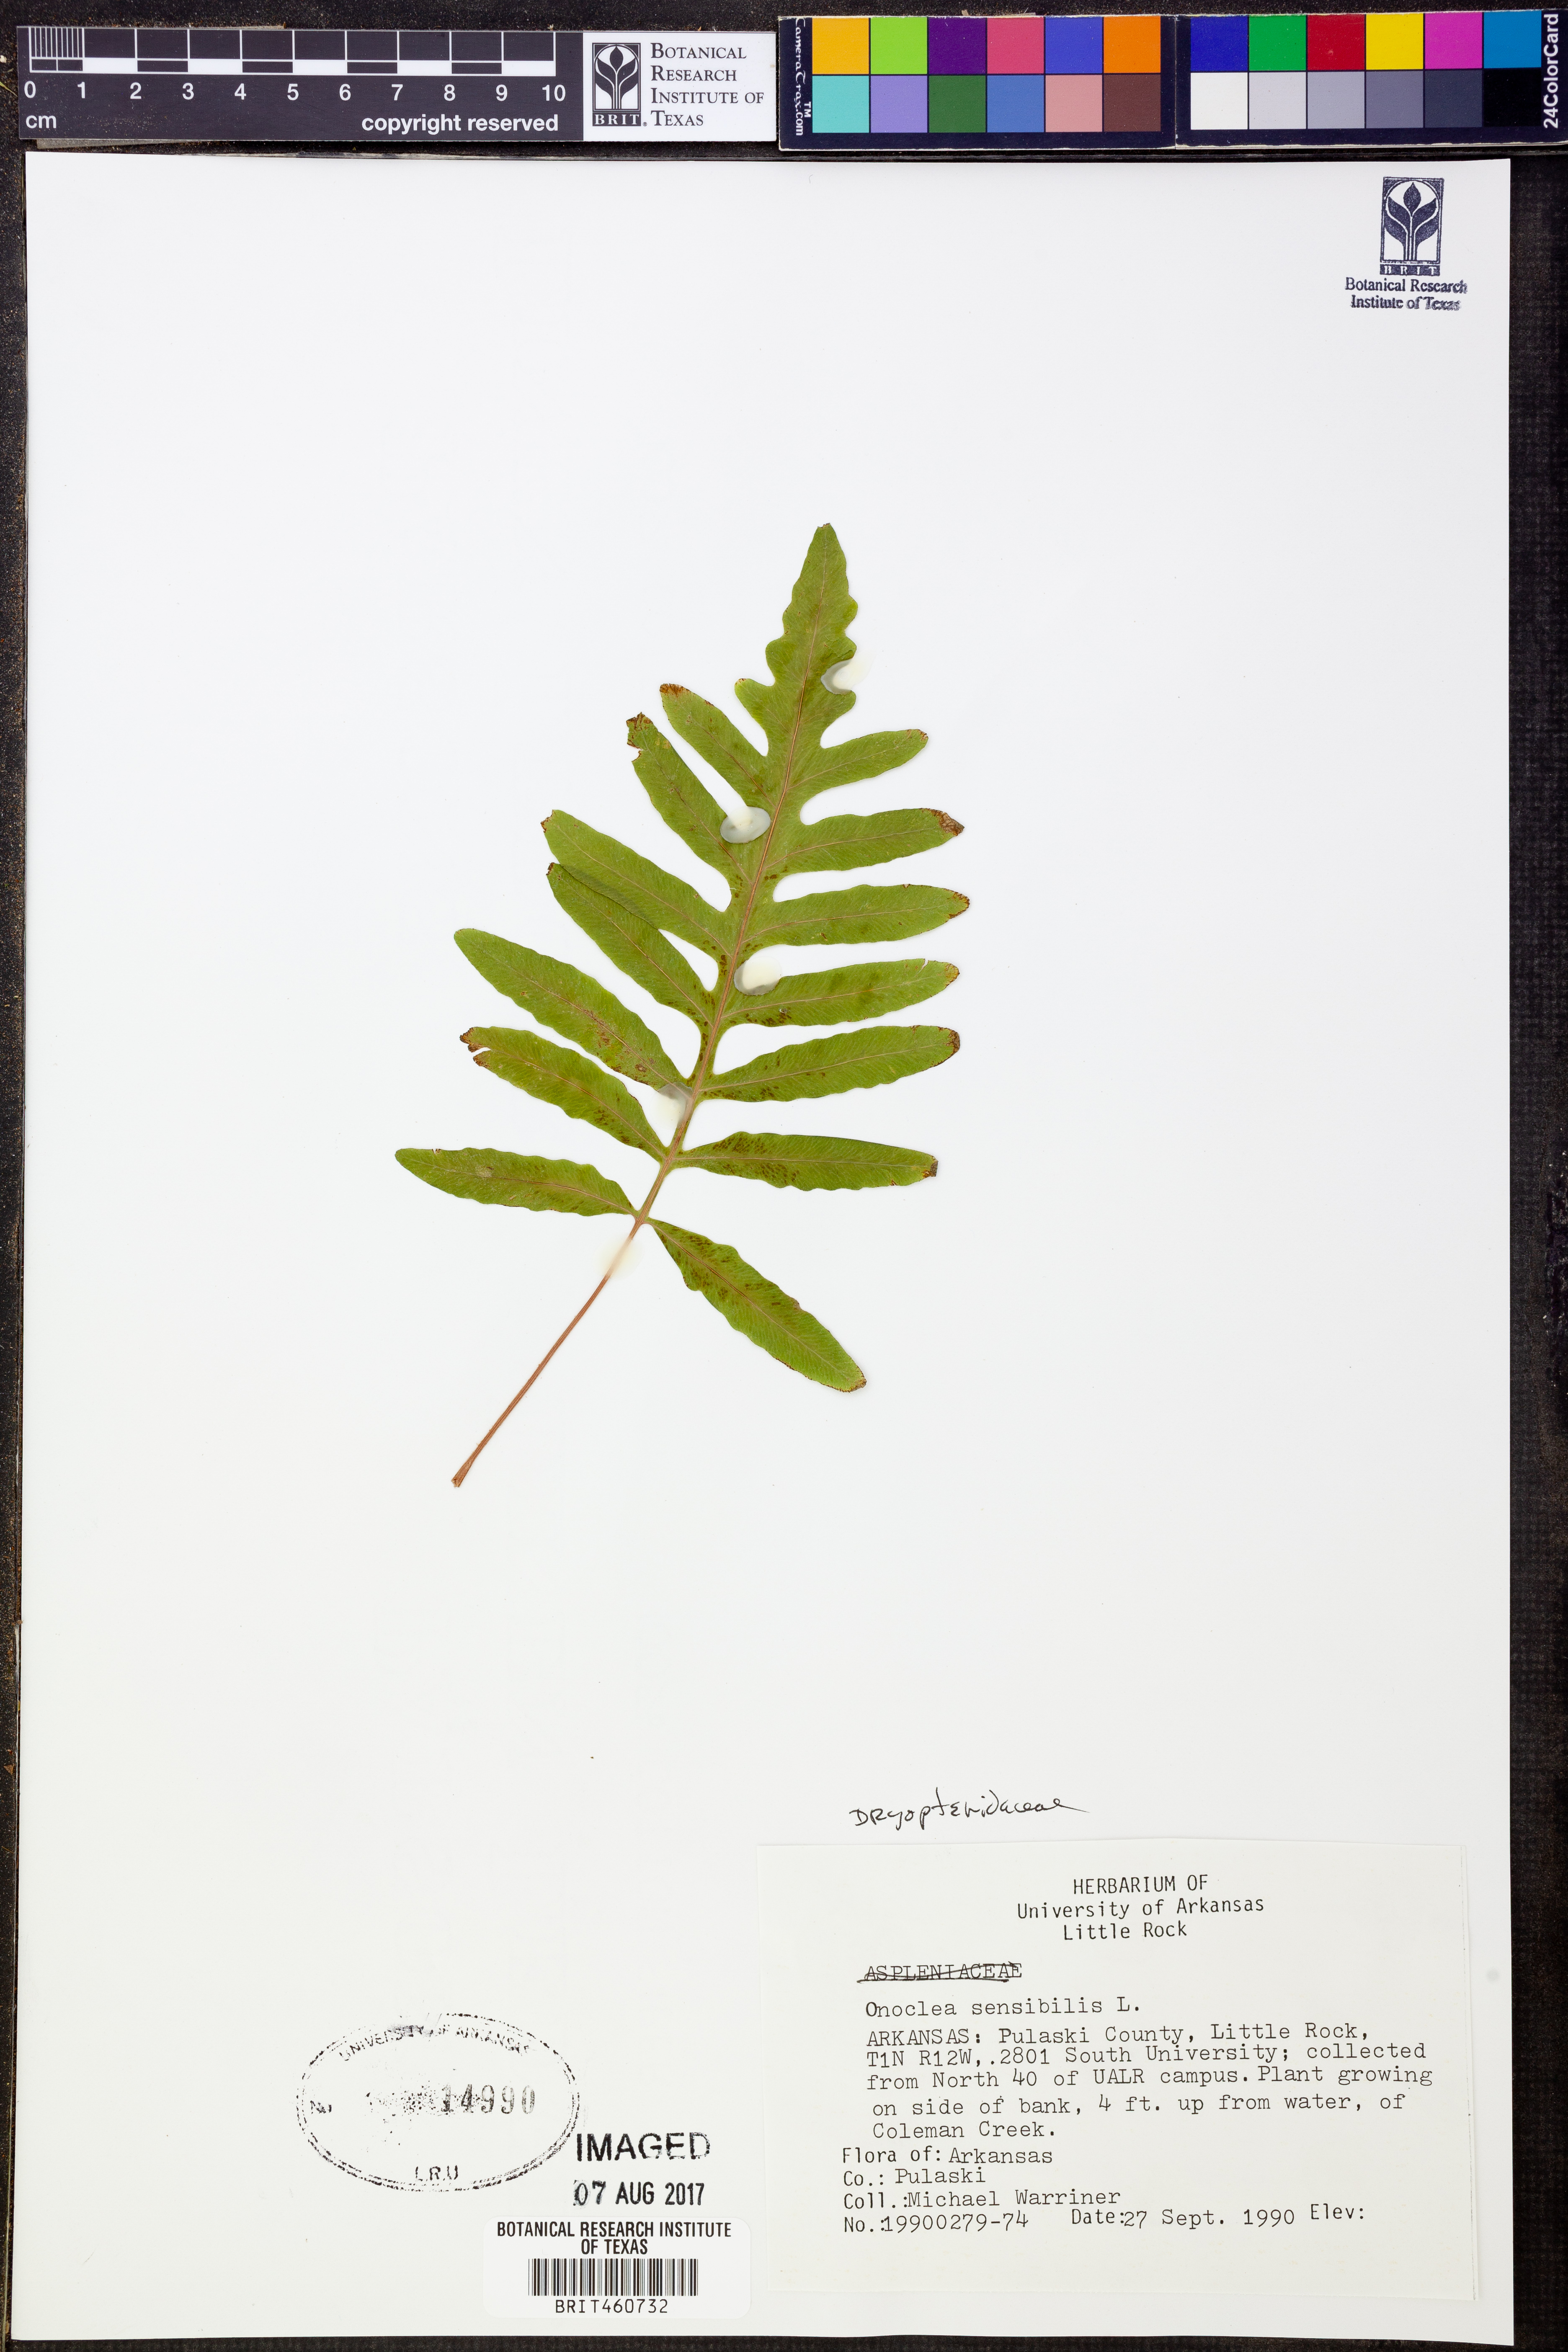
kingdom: Plantae
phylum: Tracheophyta
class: Polypodiopsida
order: Polypodiales
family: Onocleaceae
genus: Onoclea
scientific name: Onoclea sensibilis
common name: Sensitive fern
